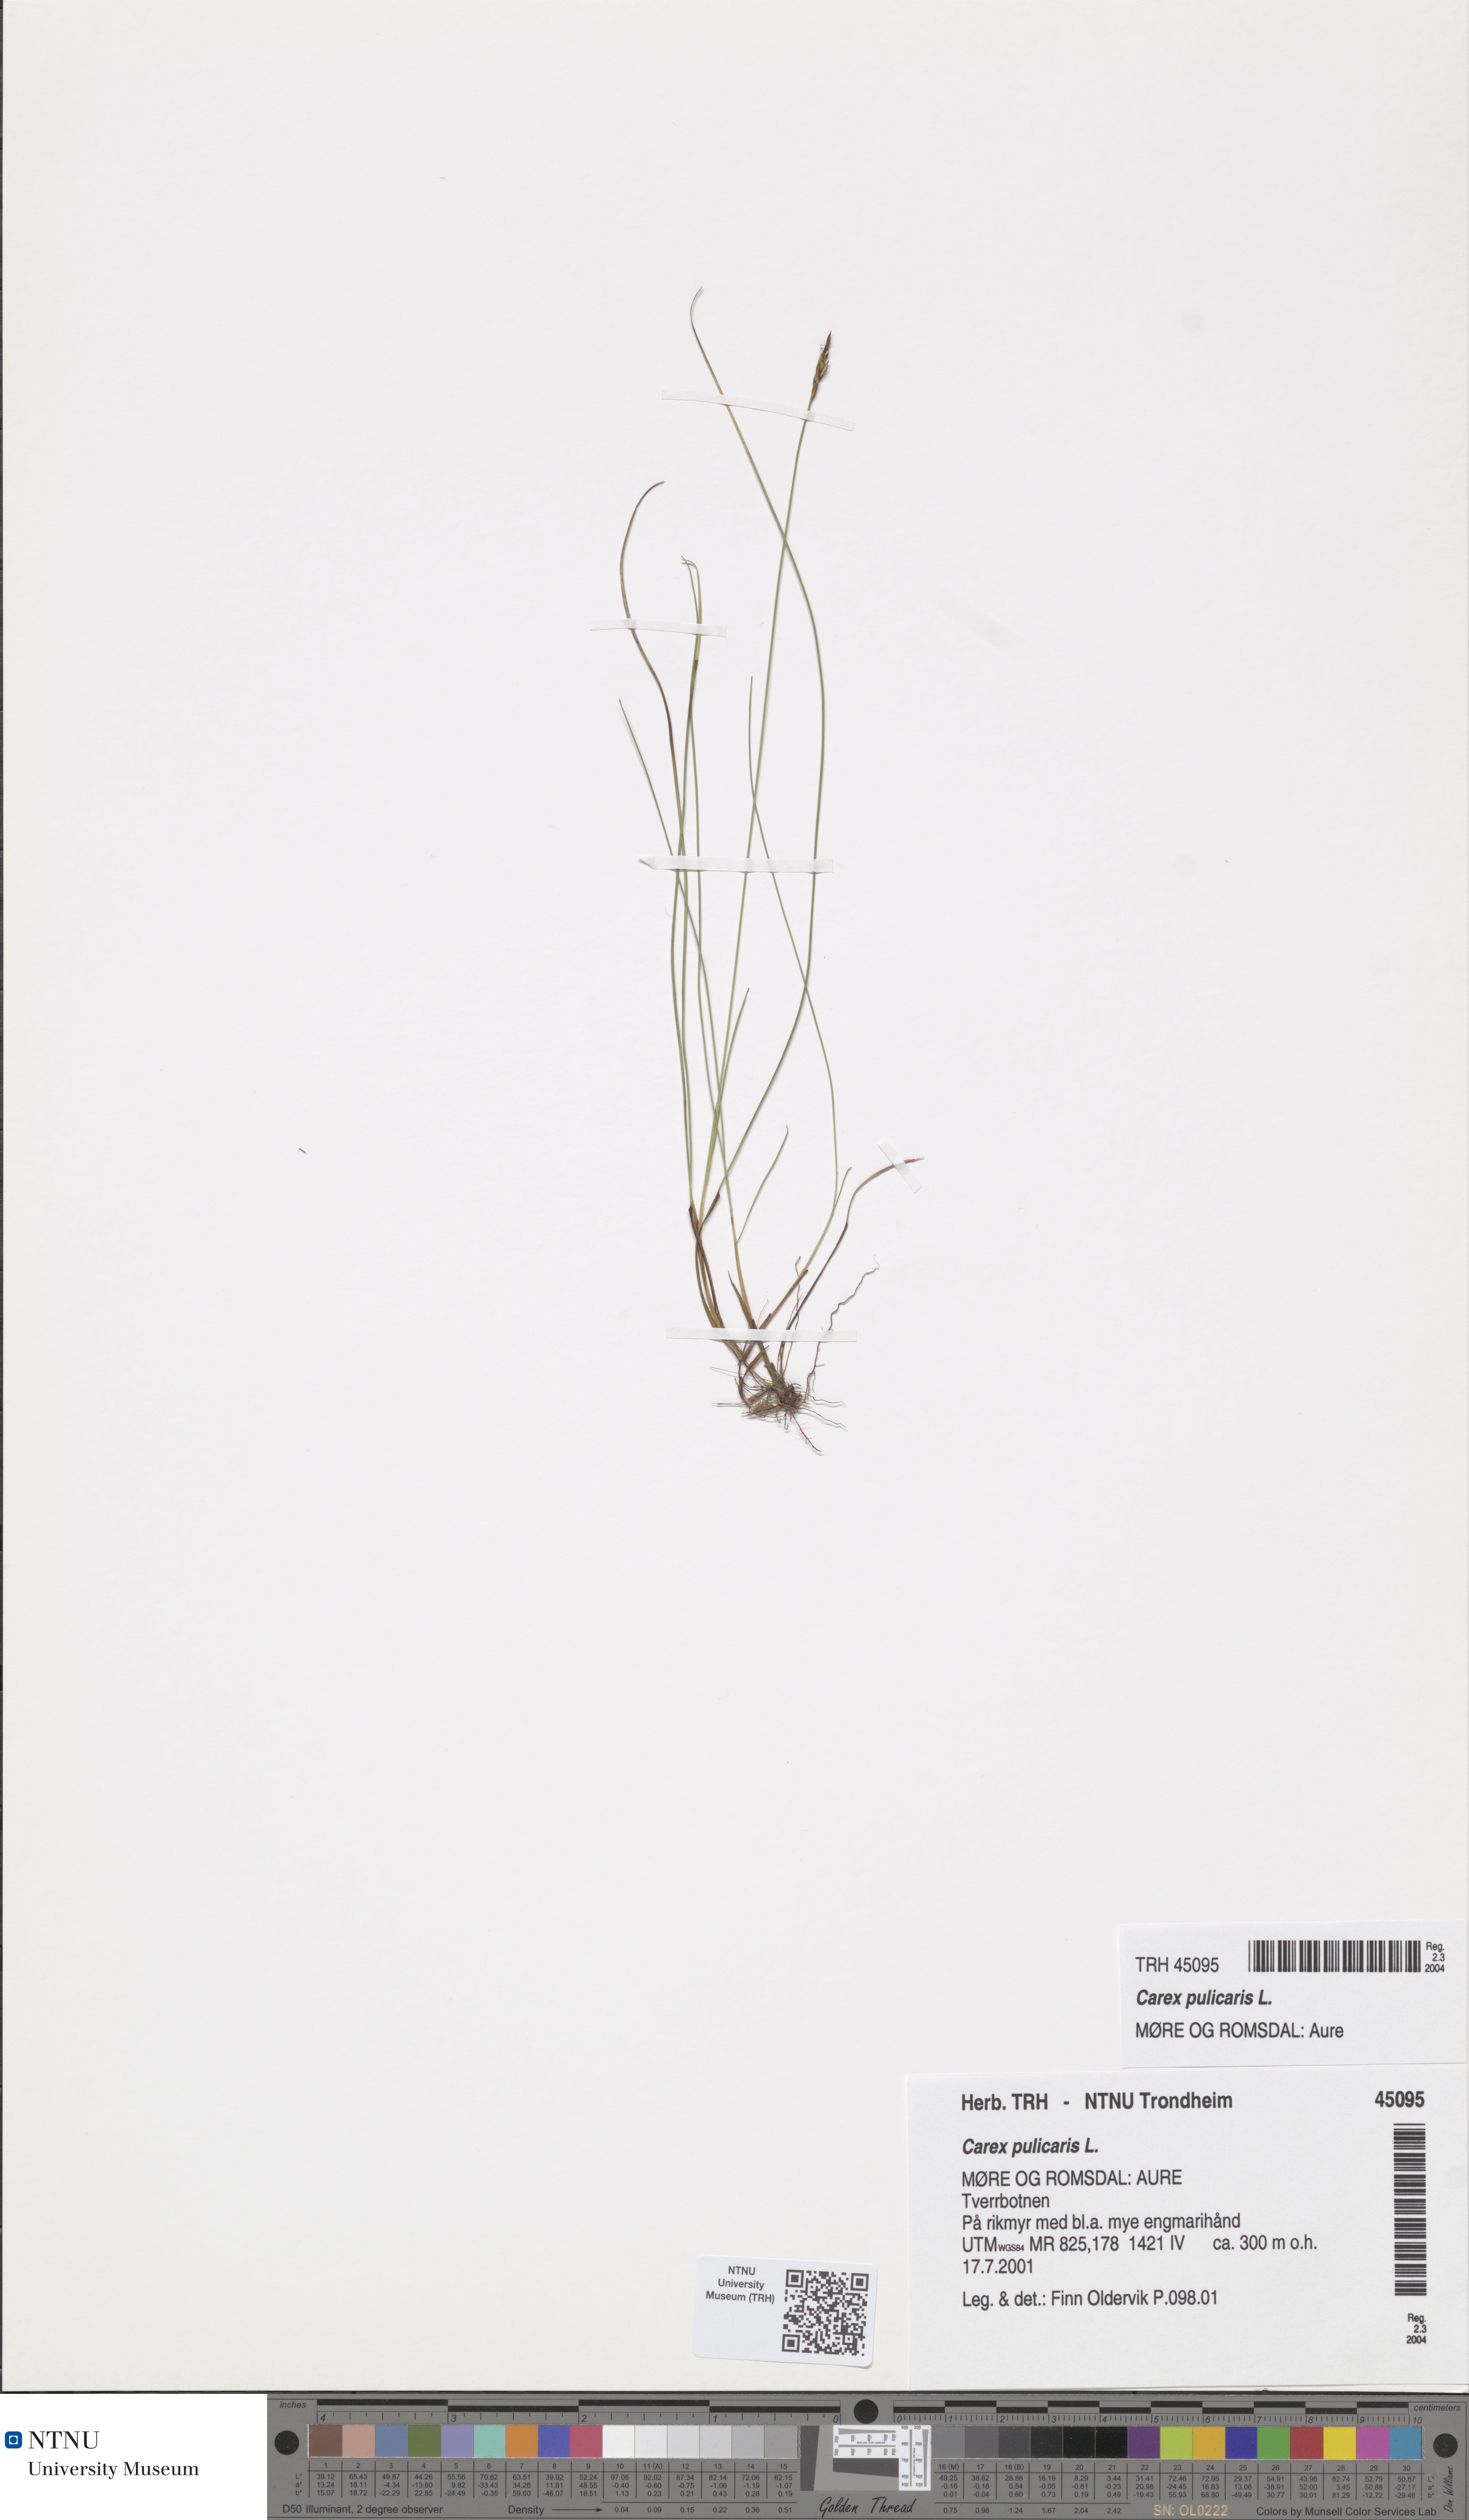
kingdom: Plantae
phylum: Tracheophyta
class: Liliopsida
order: Poales
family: Cyperaceae
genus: Carex
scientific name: Carex pulicaris
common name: Flea sedge
